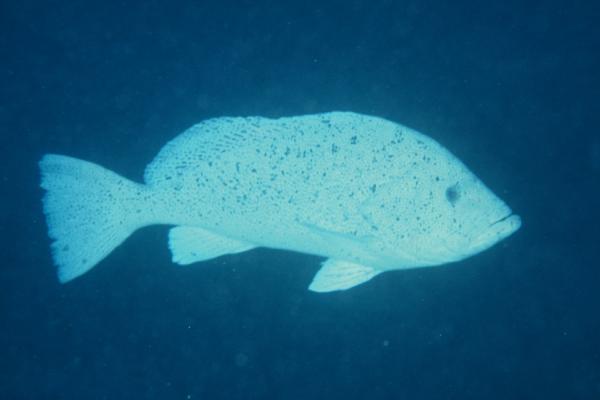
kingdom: Animalia
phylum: Chordata
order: Perciformes
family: Serranidae
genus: Epinephelus
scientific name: Epinephelus cyanopodus
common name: Speckled blue grouper
